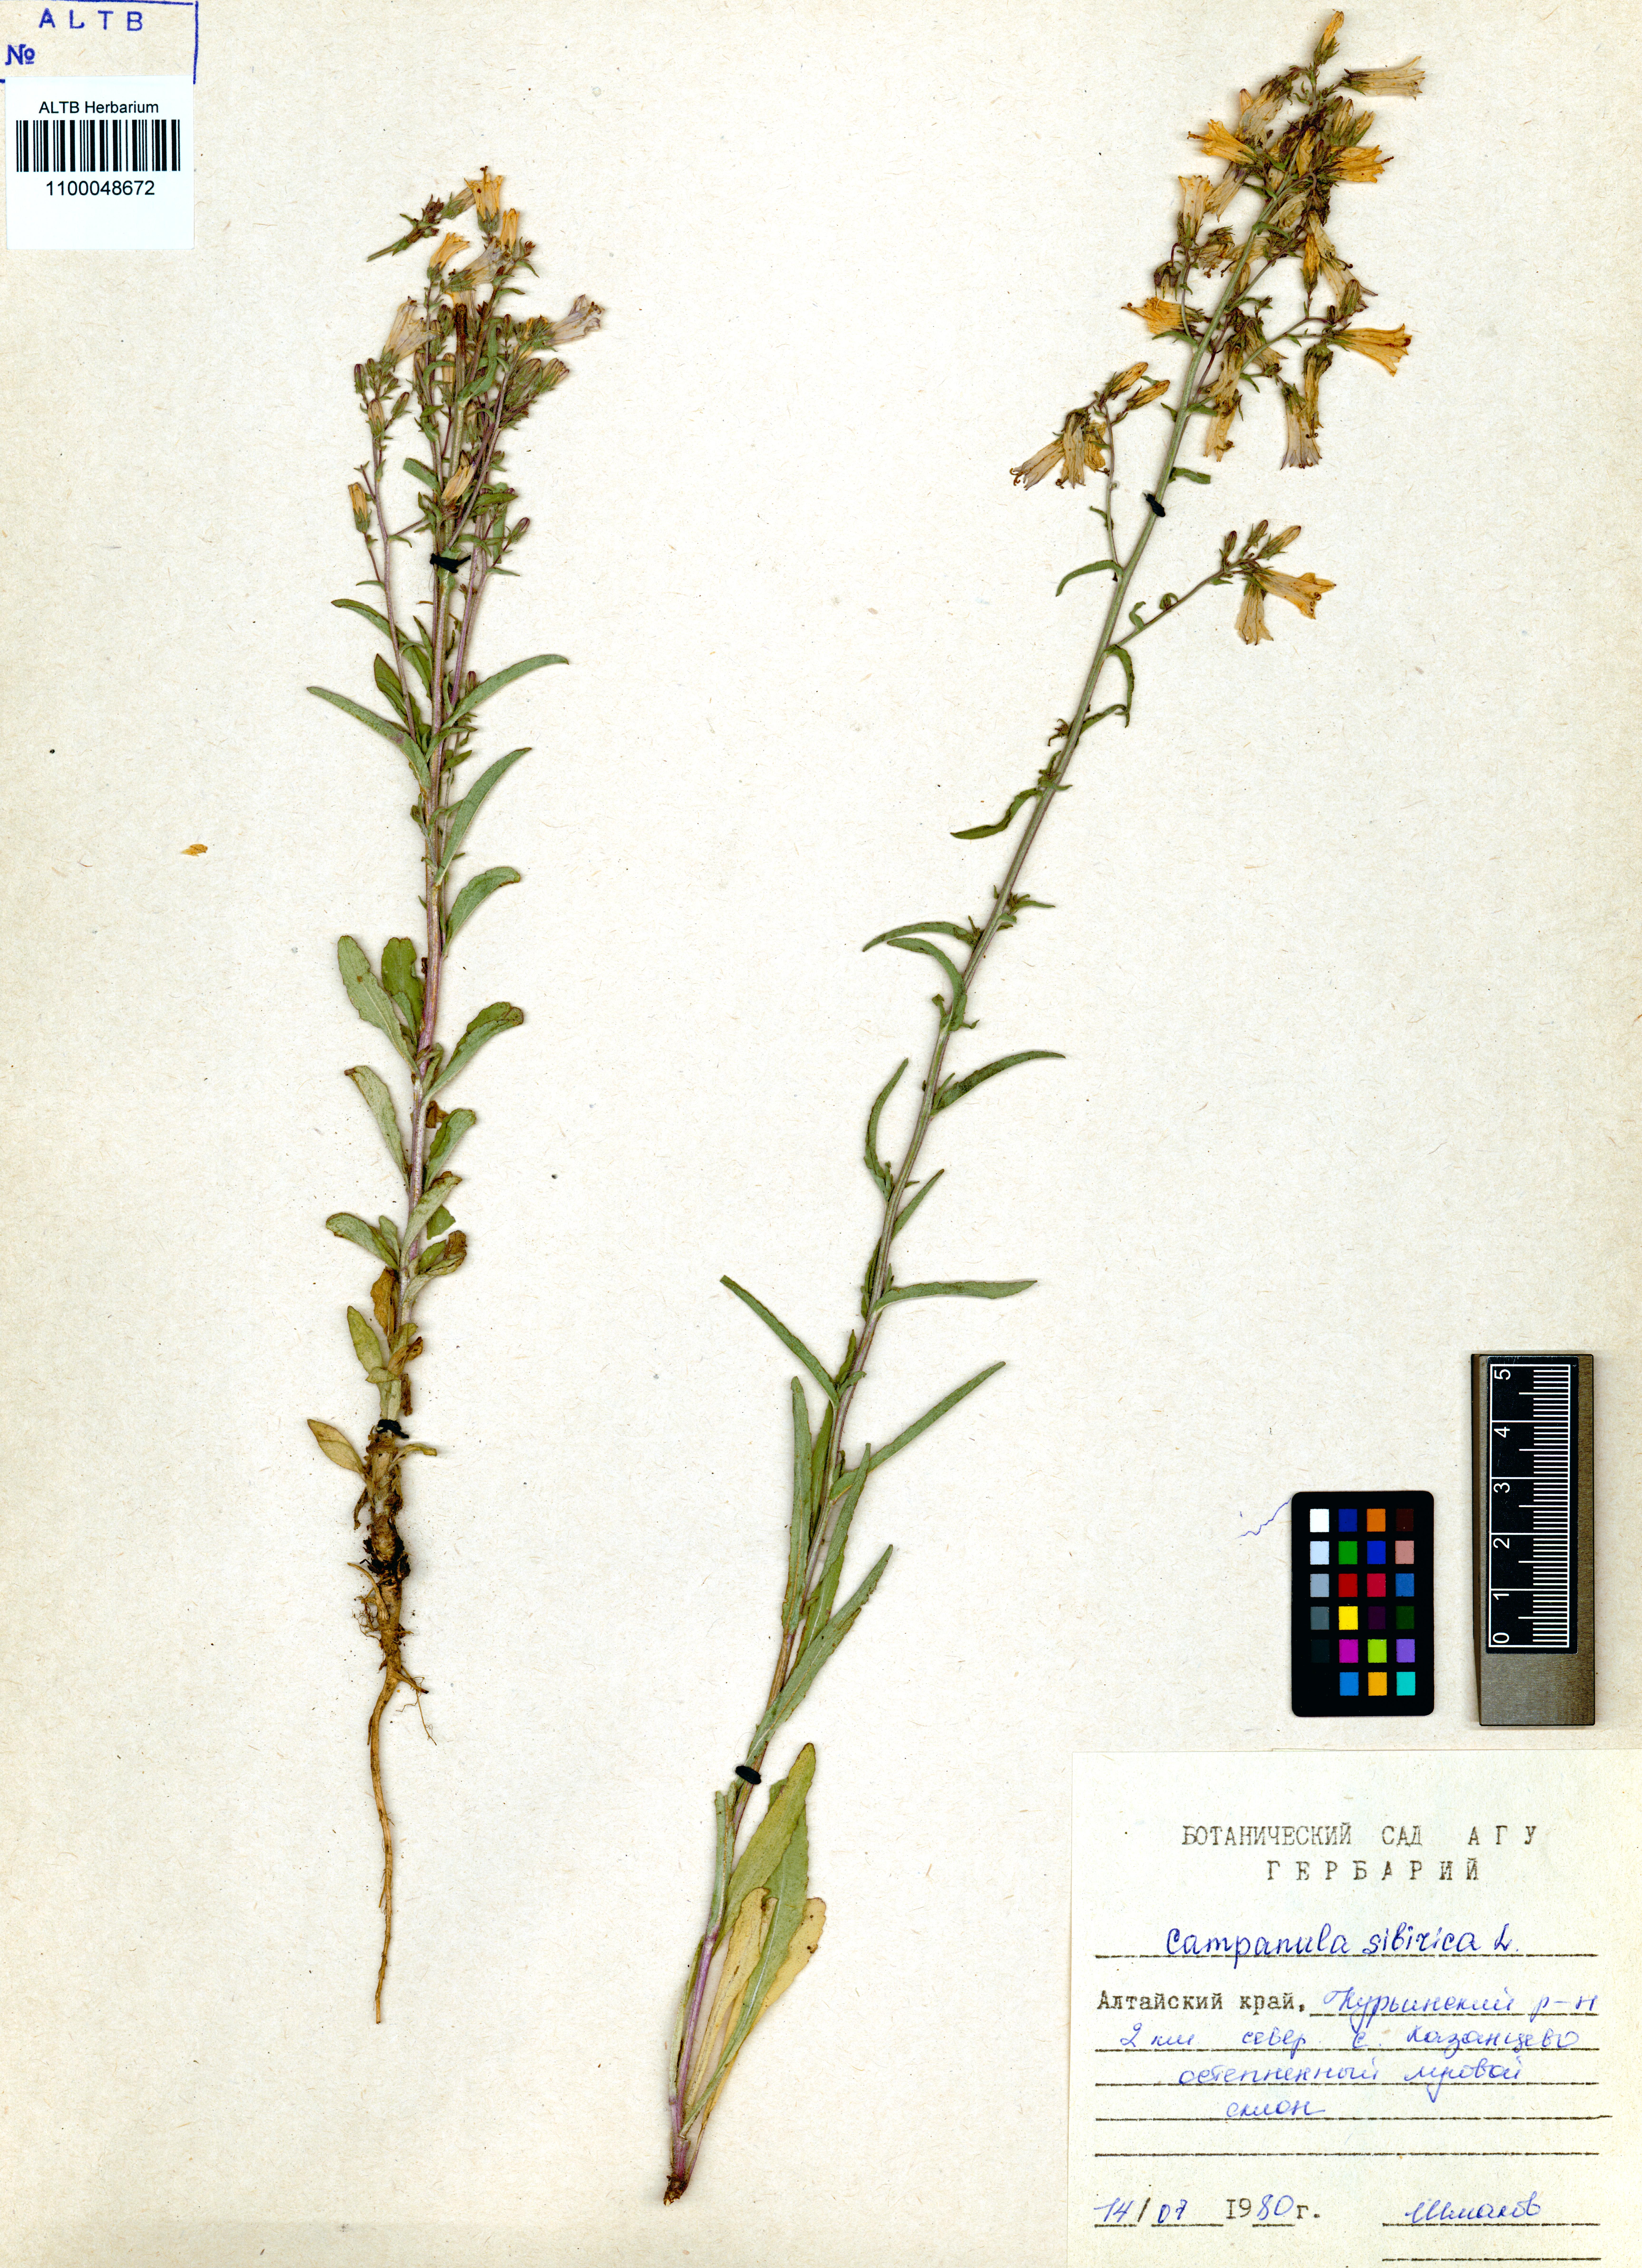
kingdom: Plantae
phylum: Tracheophyta
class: Magnoliopsida
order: Asterales
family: Campanulaceae
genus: Campanula
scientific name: Campanula sibirica
